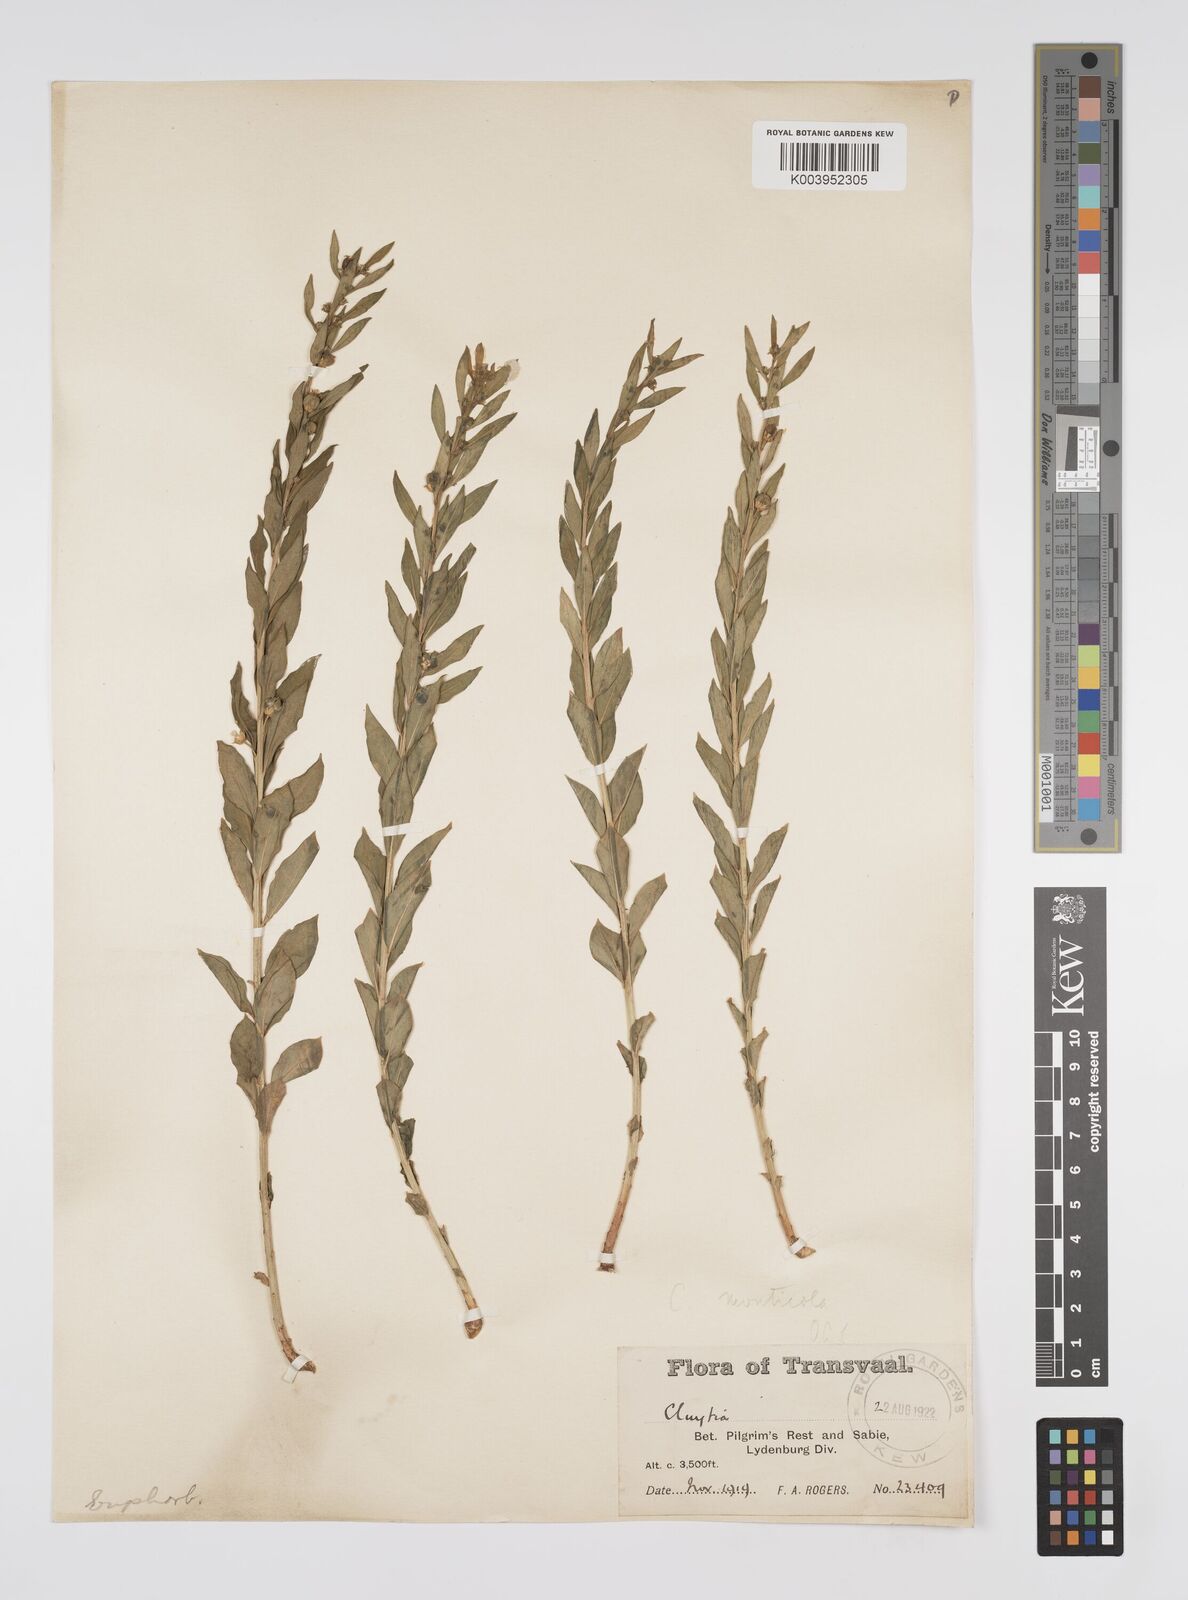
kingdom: Plantae
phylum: Tracheophyta
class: Magnoliopsida
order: Malpighiales
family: Peraceae
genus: Clutia
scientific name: Clutia
